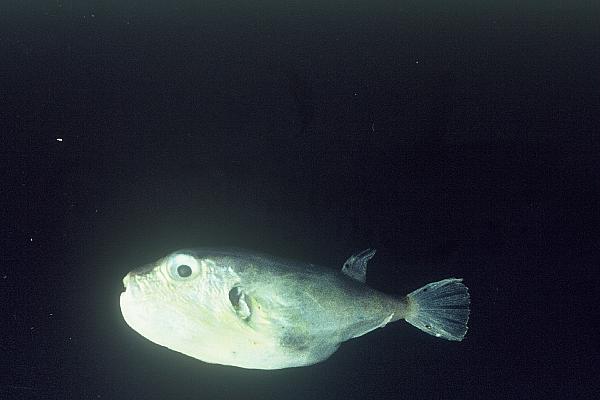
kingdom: Animalia
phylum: Chordata
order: Tetraodontiformes
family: Tetraodontidae
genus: Lagocephalus
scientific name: Lagocephalus
